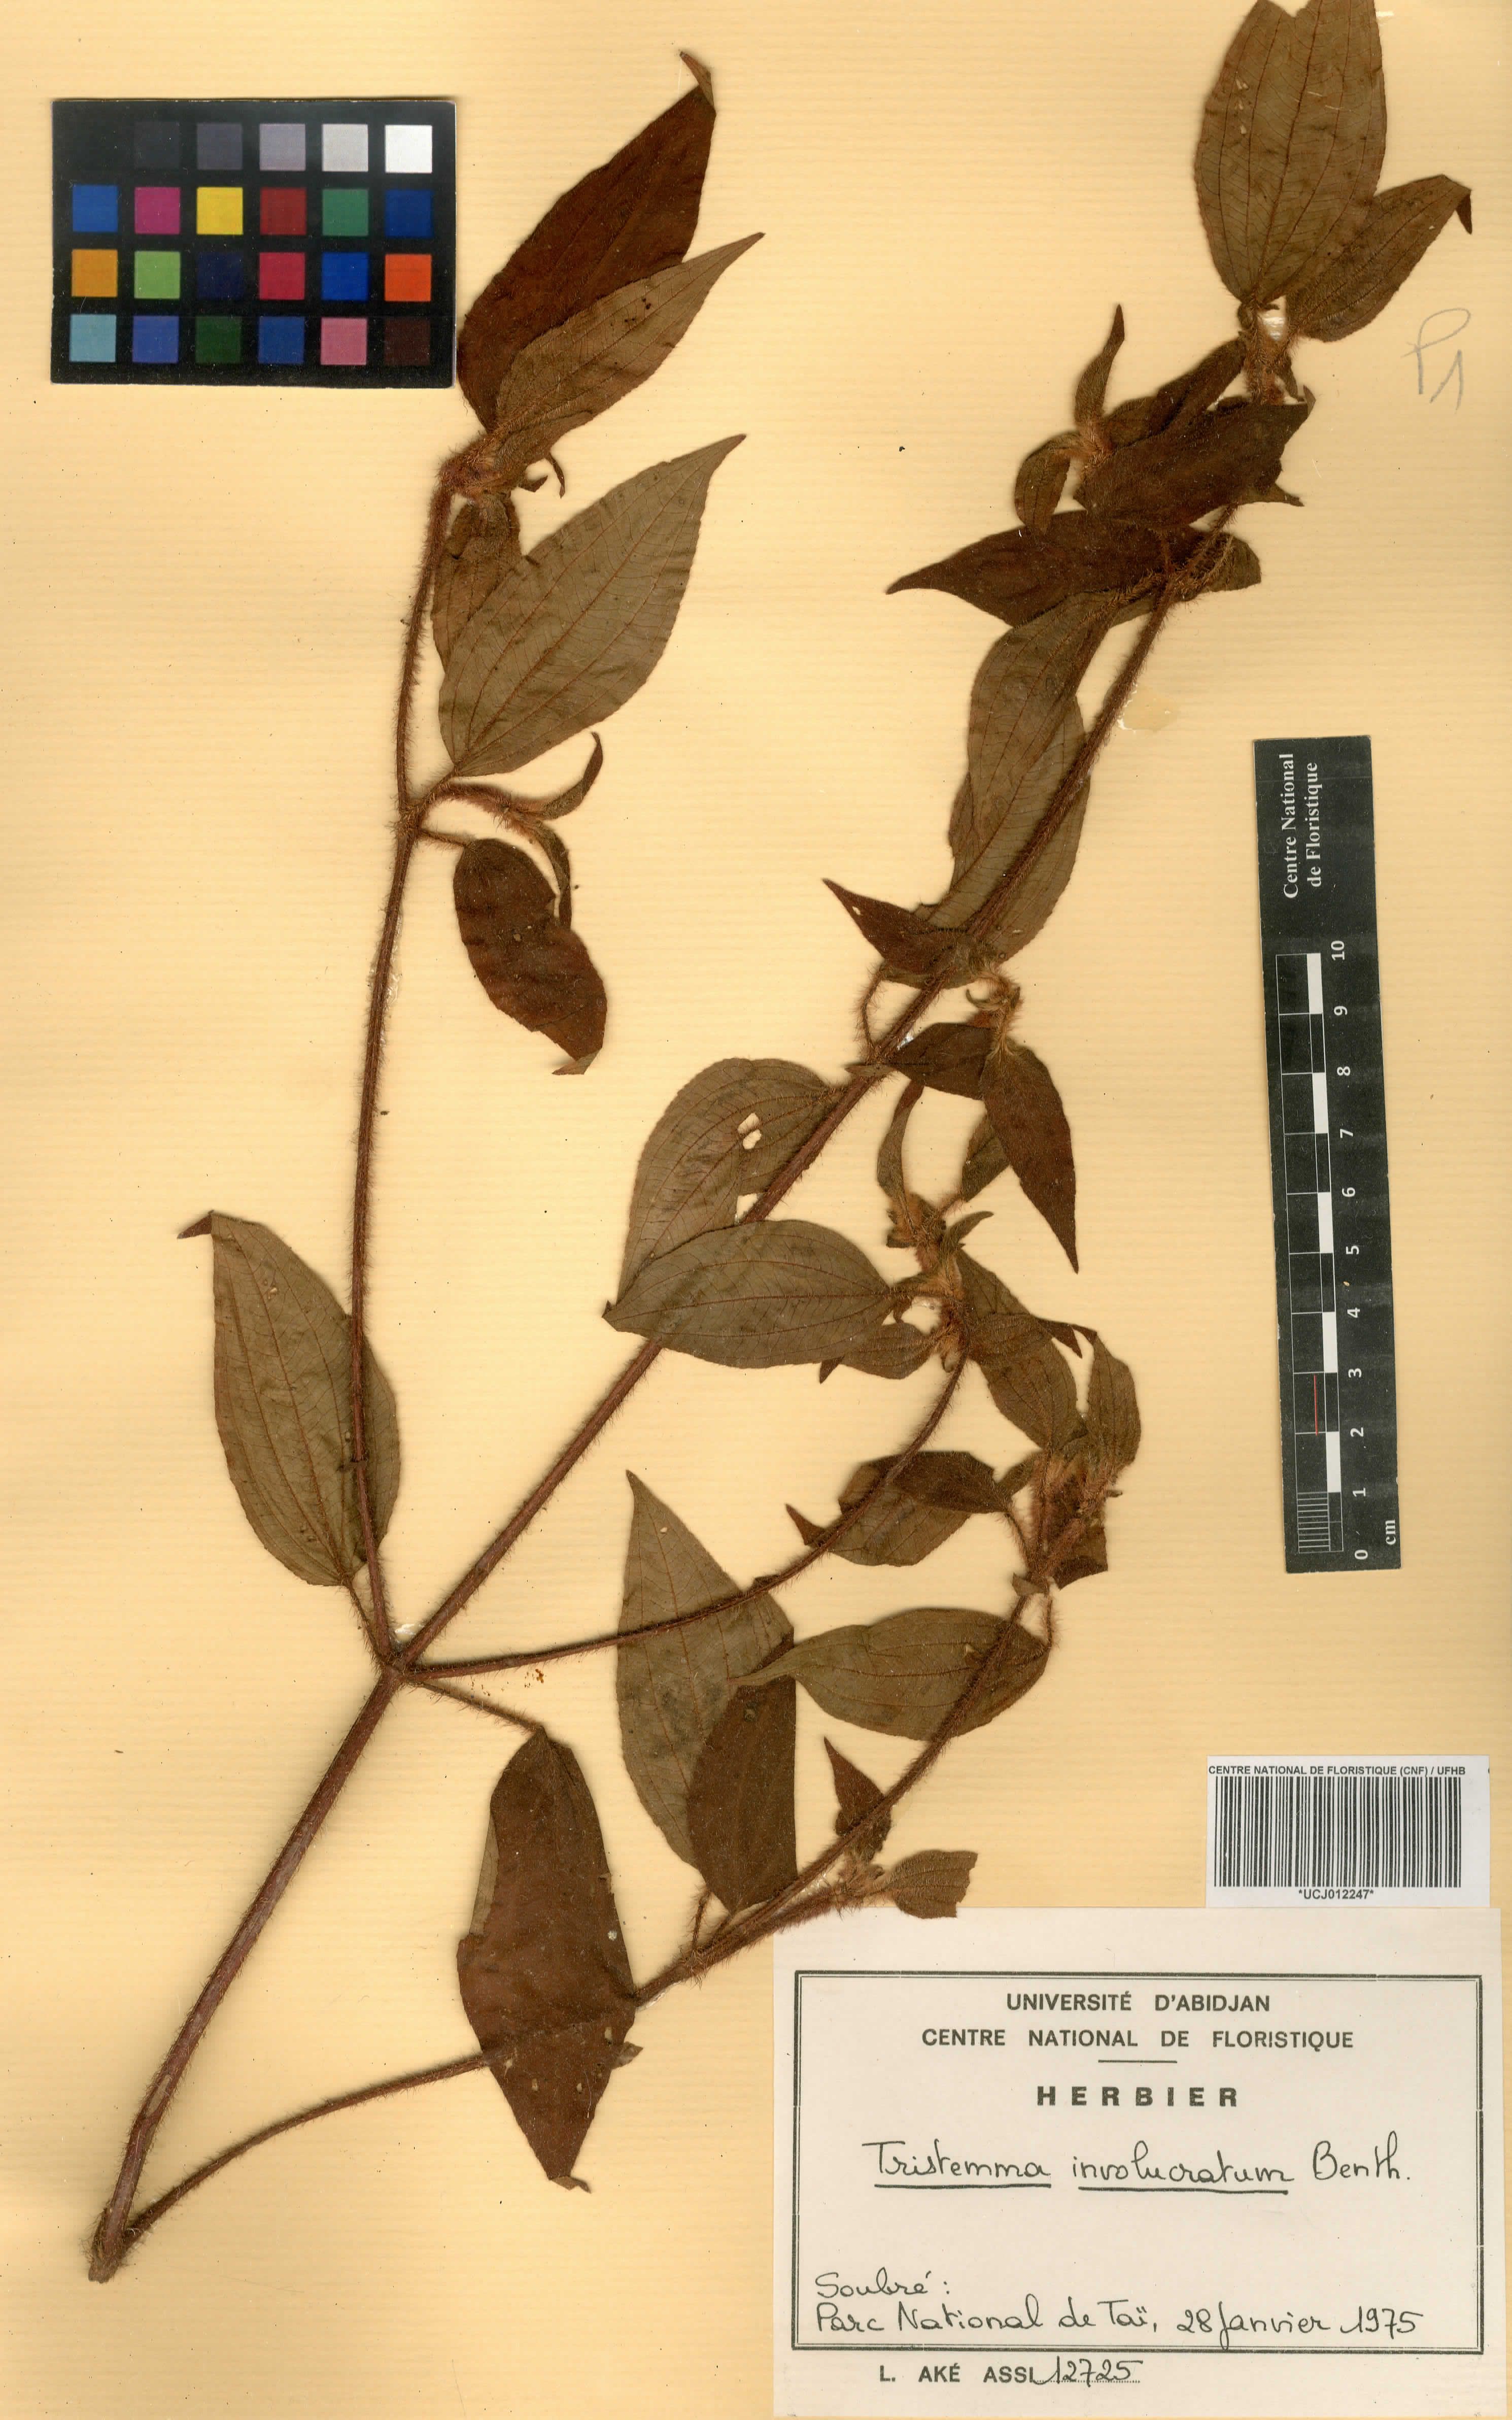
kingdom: Plantae
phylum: Tracheophyta
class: Magnoliopsida
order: Myrtales
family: Melastomataceae
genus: Tristemma
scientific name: Tristemma involucratum
